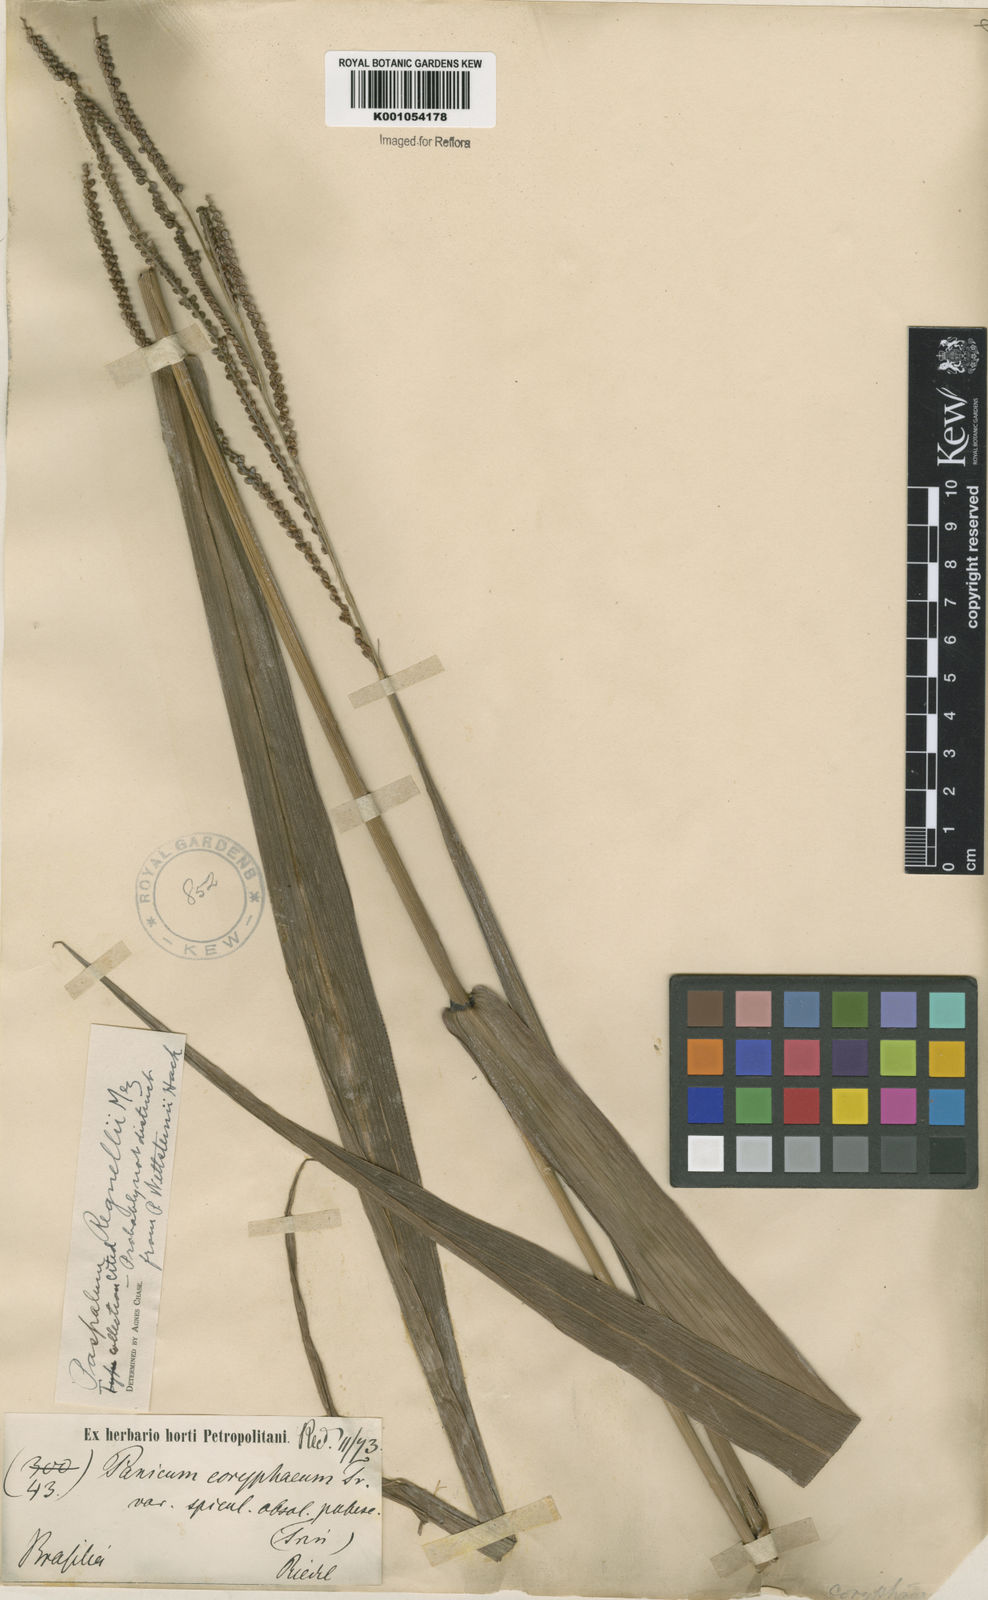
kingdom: Plantae
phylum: Tracheophyta
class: Liliopsida
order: Poales
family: Poaceae
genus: Paspalum
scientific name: Paspalum regnellii
